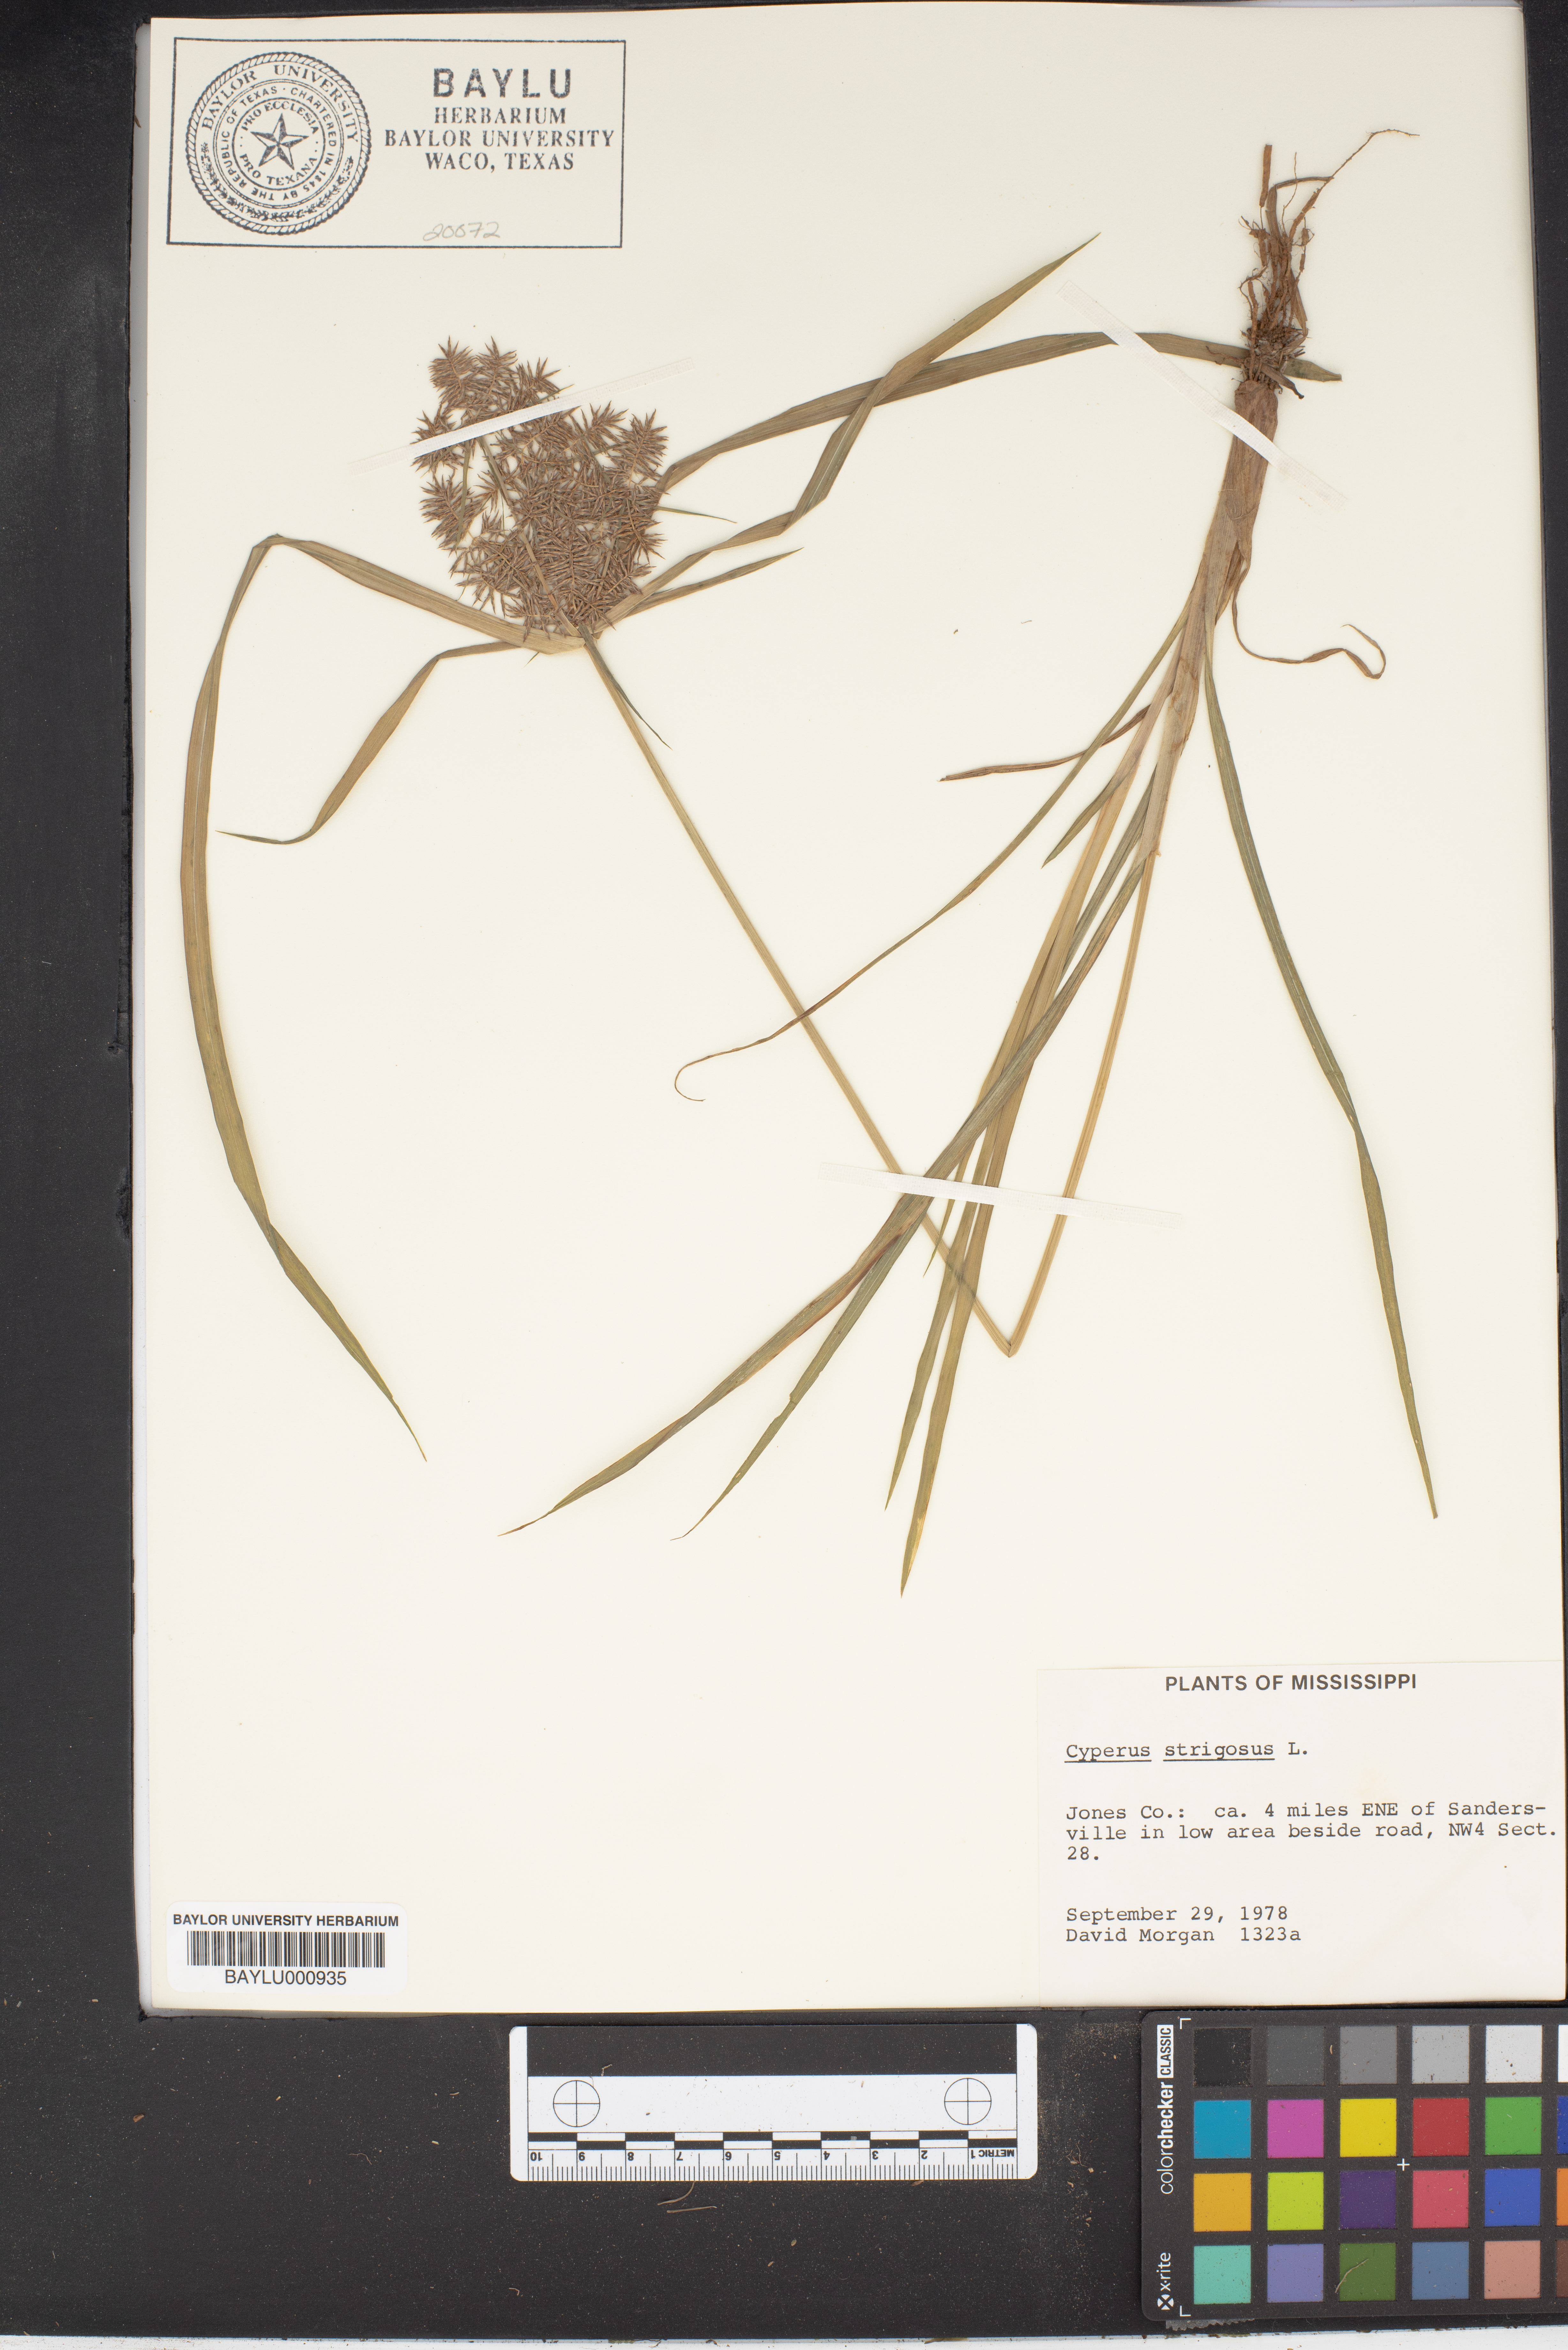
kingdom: Plantae
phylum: Tracheophyta
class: Liliopsida
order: Poales
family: Cyperaceae
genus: Cyperus
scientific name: Cyperus strigosus
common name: False nutsedge
